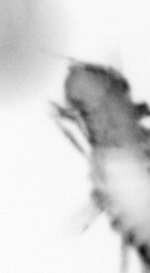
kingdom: Animalia
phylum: Annelida
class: Polychaeta
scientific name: Polychaeta
